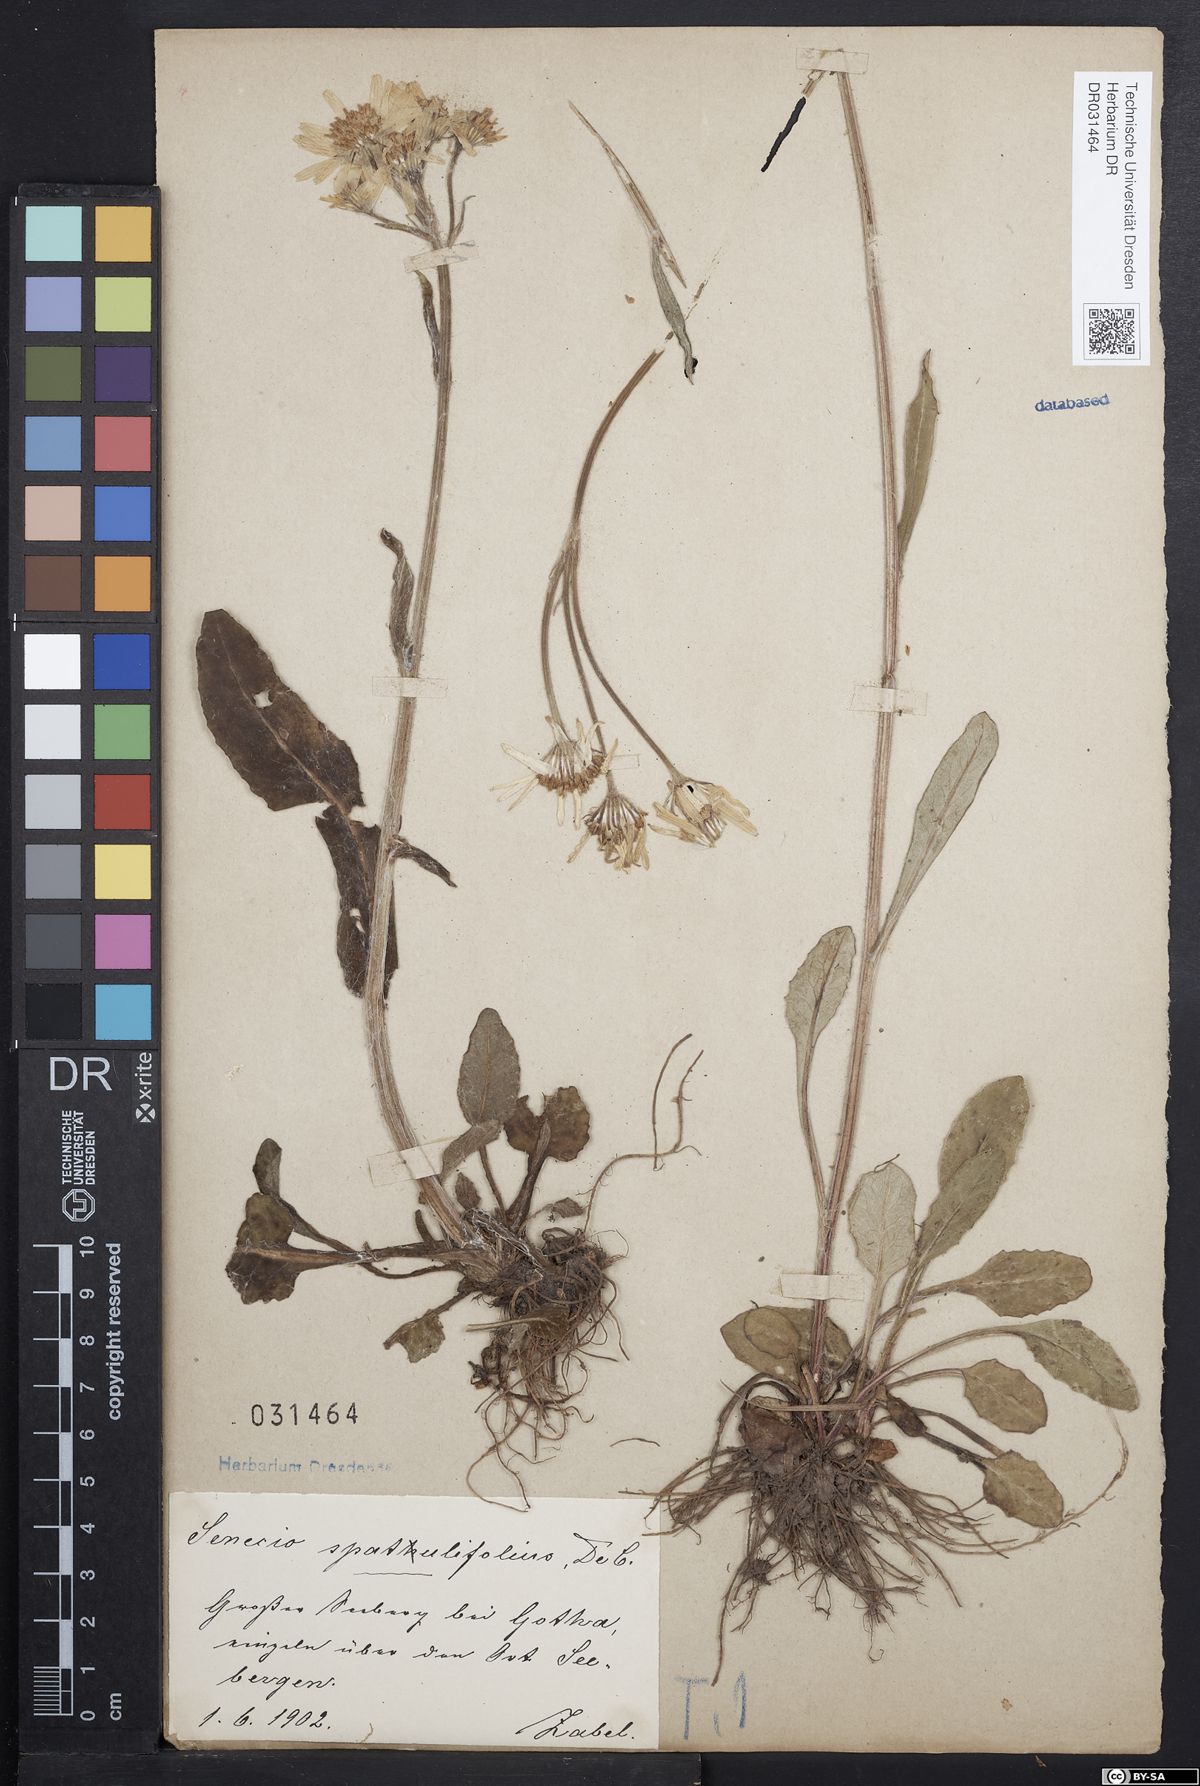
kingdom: Plantae
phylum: Tracheophyta
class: Magnoliopsida
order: Asterales
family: Asteraceae
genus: Tephroseris
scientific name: Tephroseris helenitis
